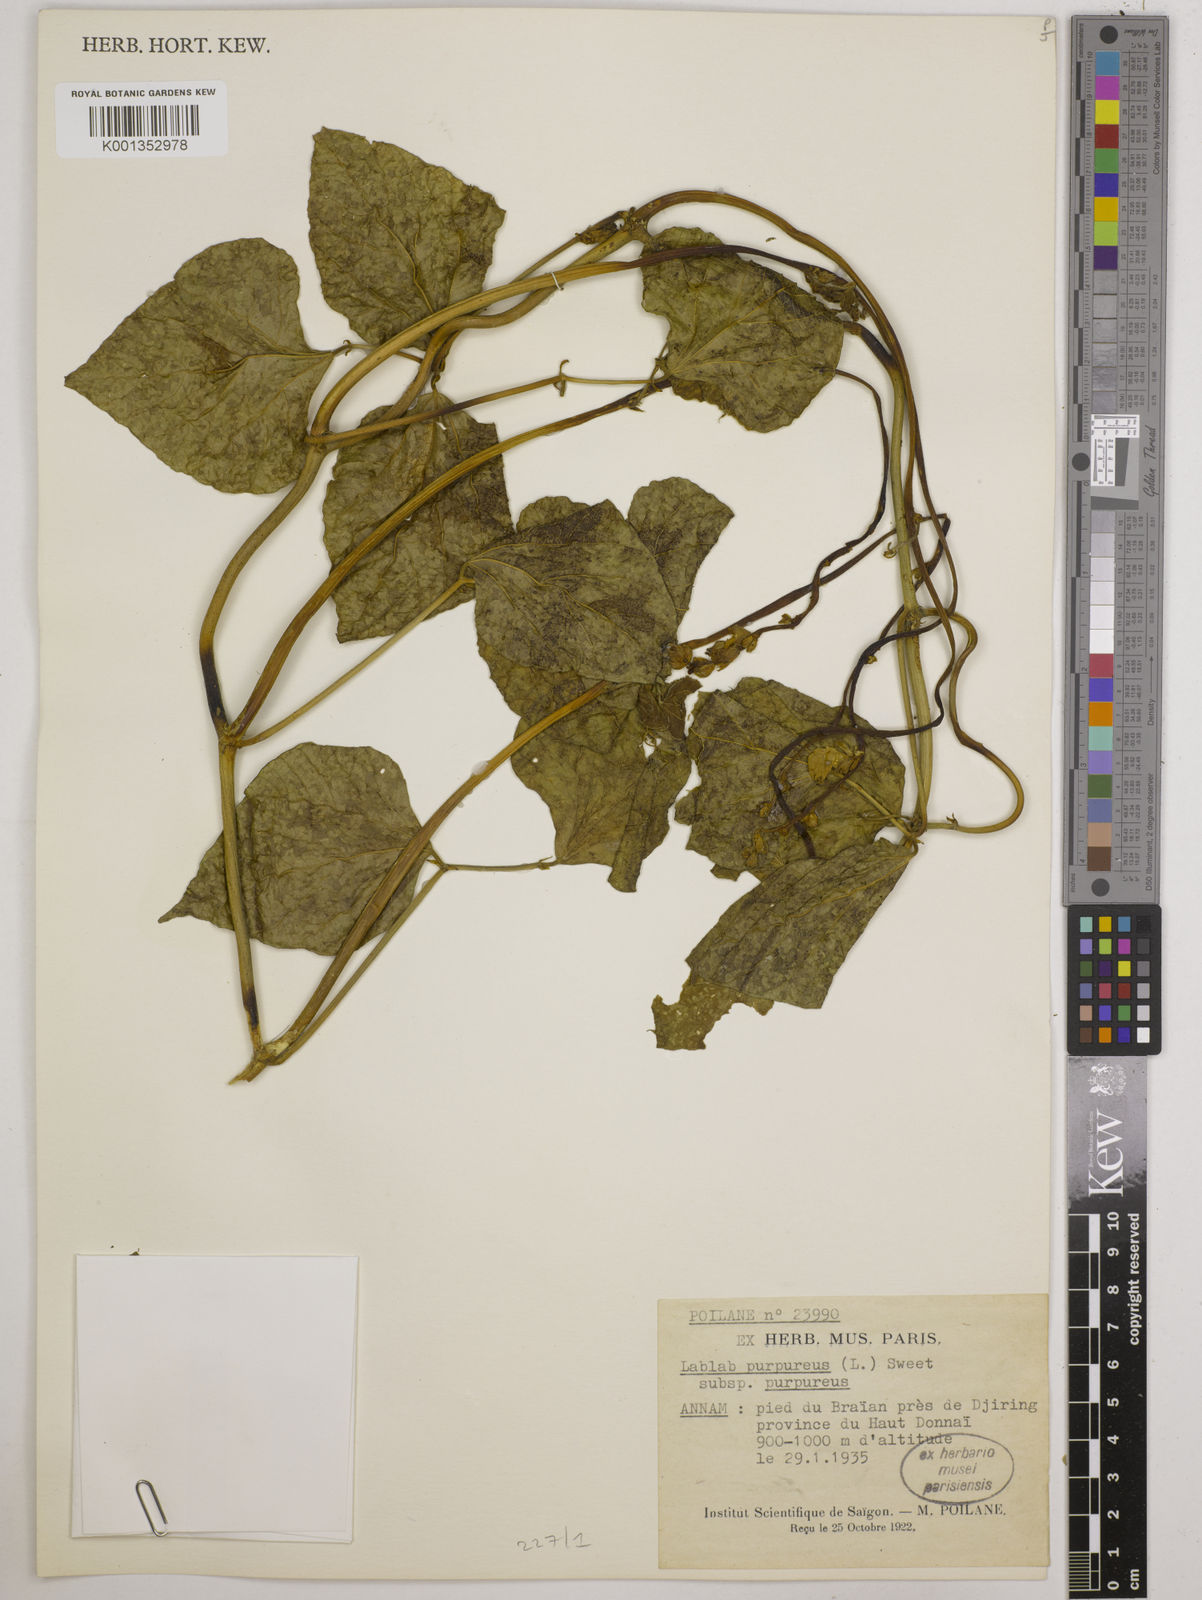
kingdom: Plantae
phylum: Tracheophyta
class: Magnoliopsida
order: Fabales
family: Fabaceae
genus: Lablab
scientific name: Lablab purpureus
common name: Lablab-bean
